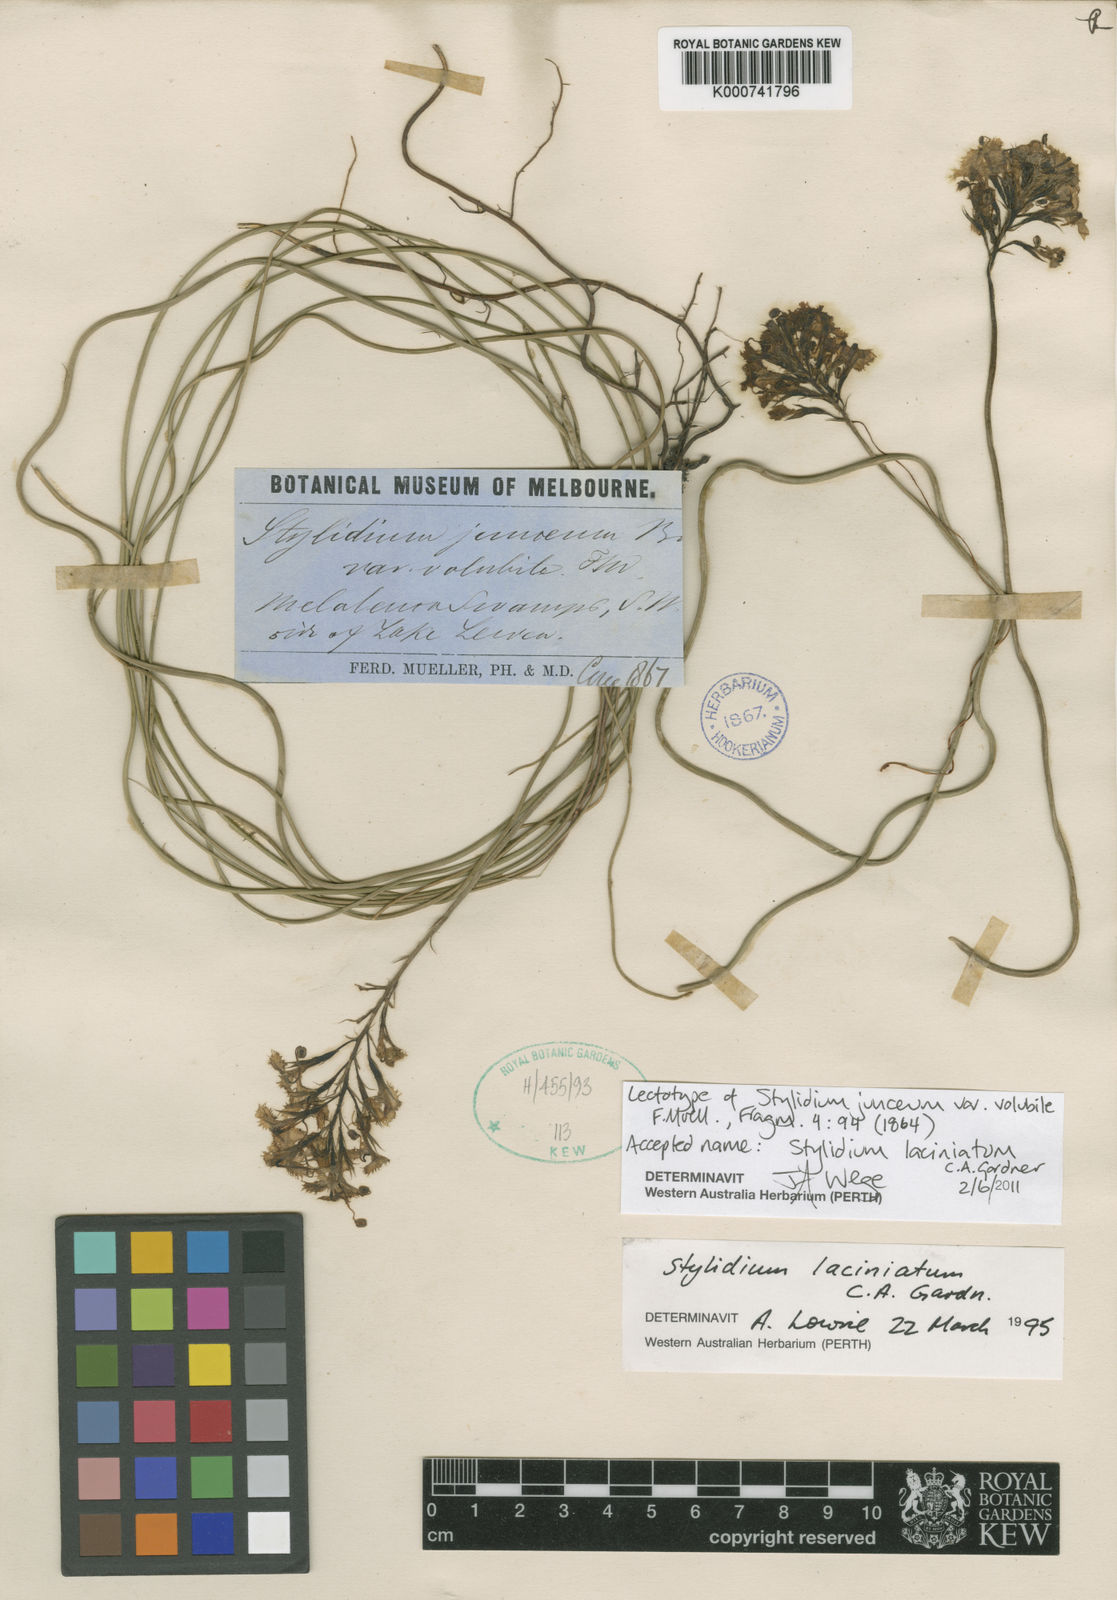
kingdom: Plantae
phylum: Tracheophyta
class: Magnoliopsida
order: Asterales
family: Stylidiaceae
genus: Stylidium
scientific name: Stylidium laciniatum
